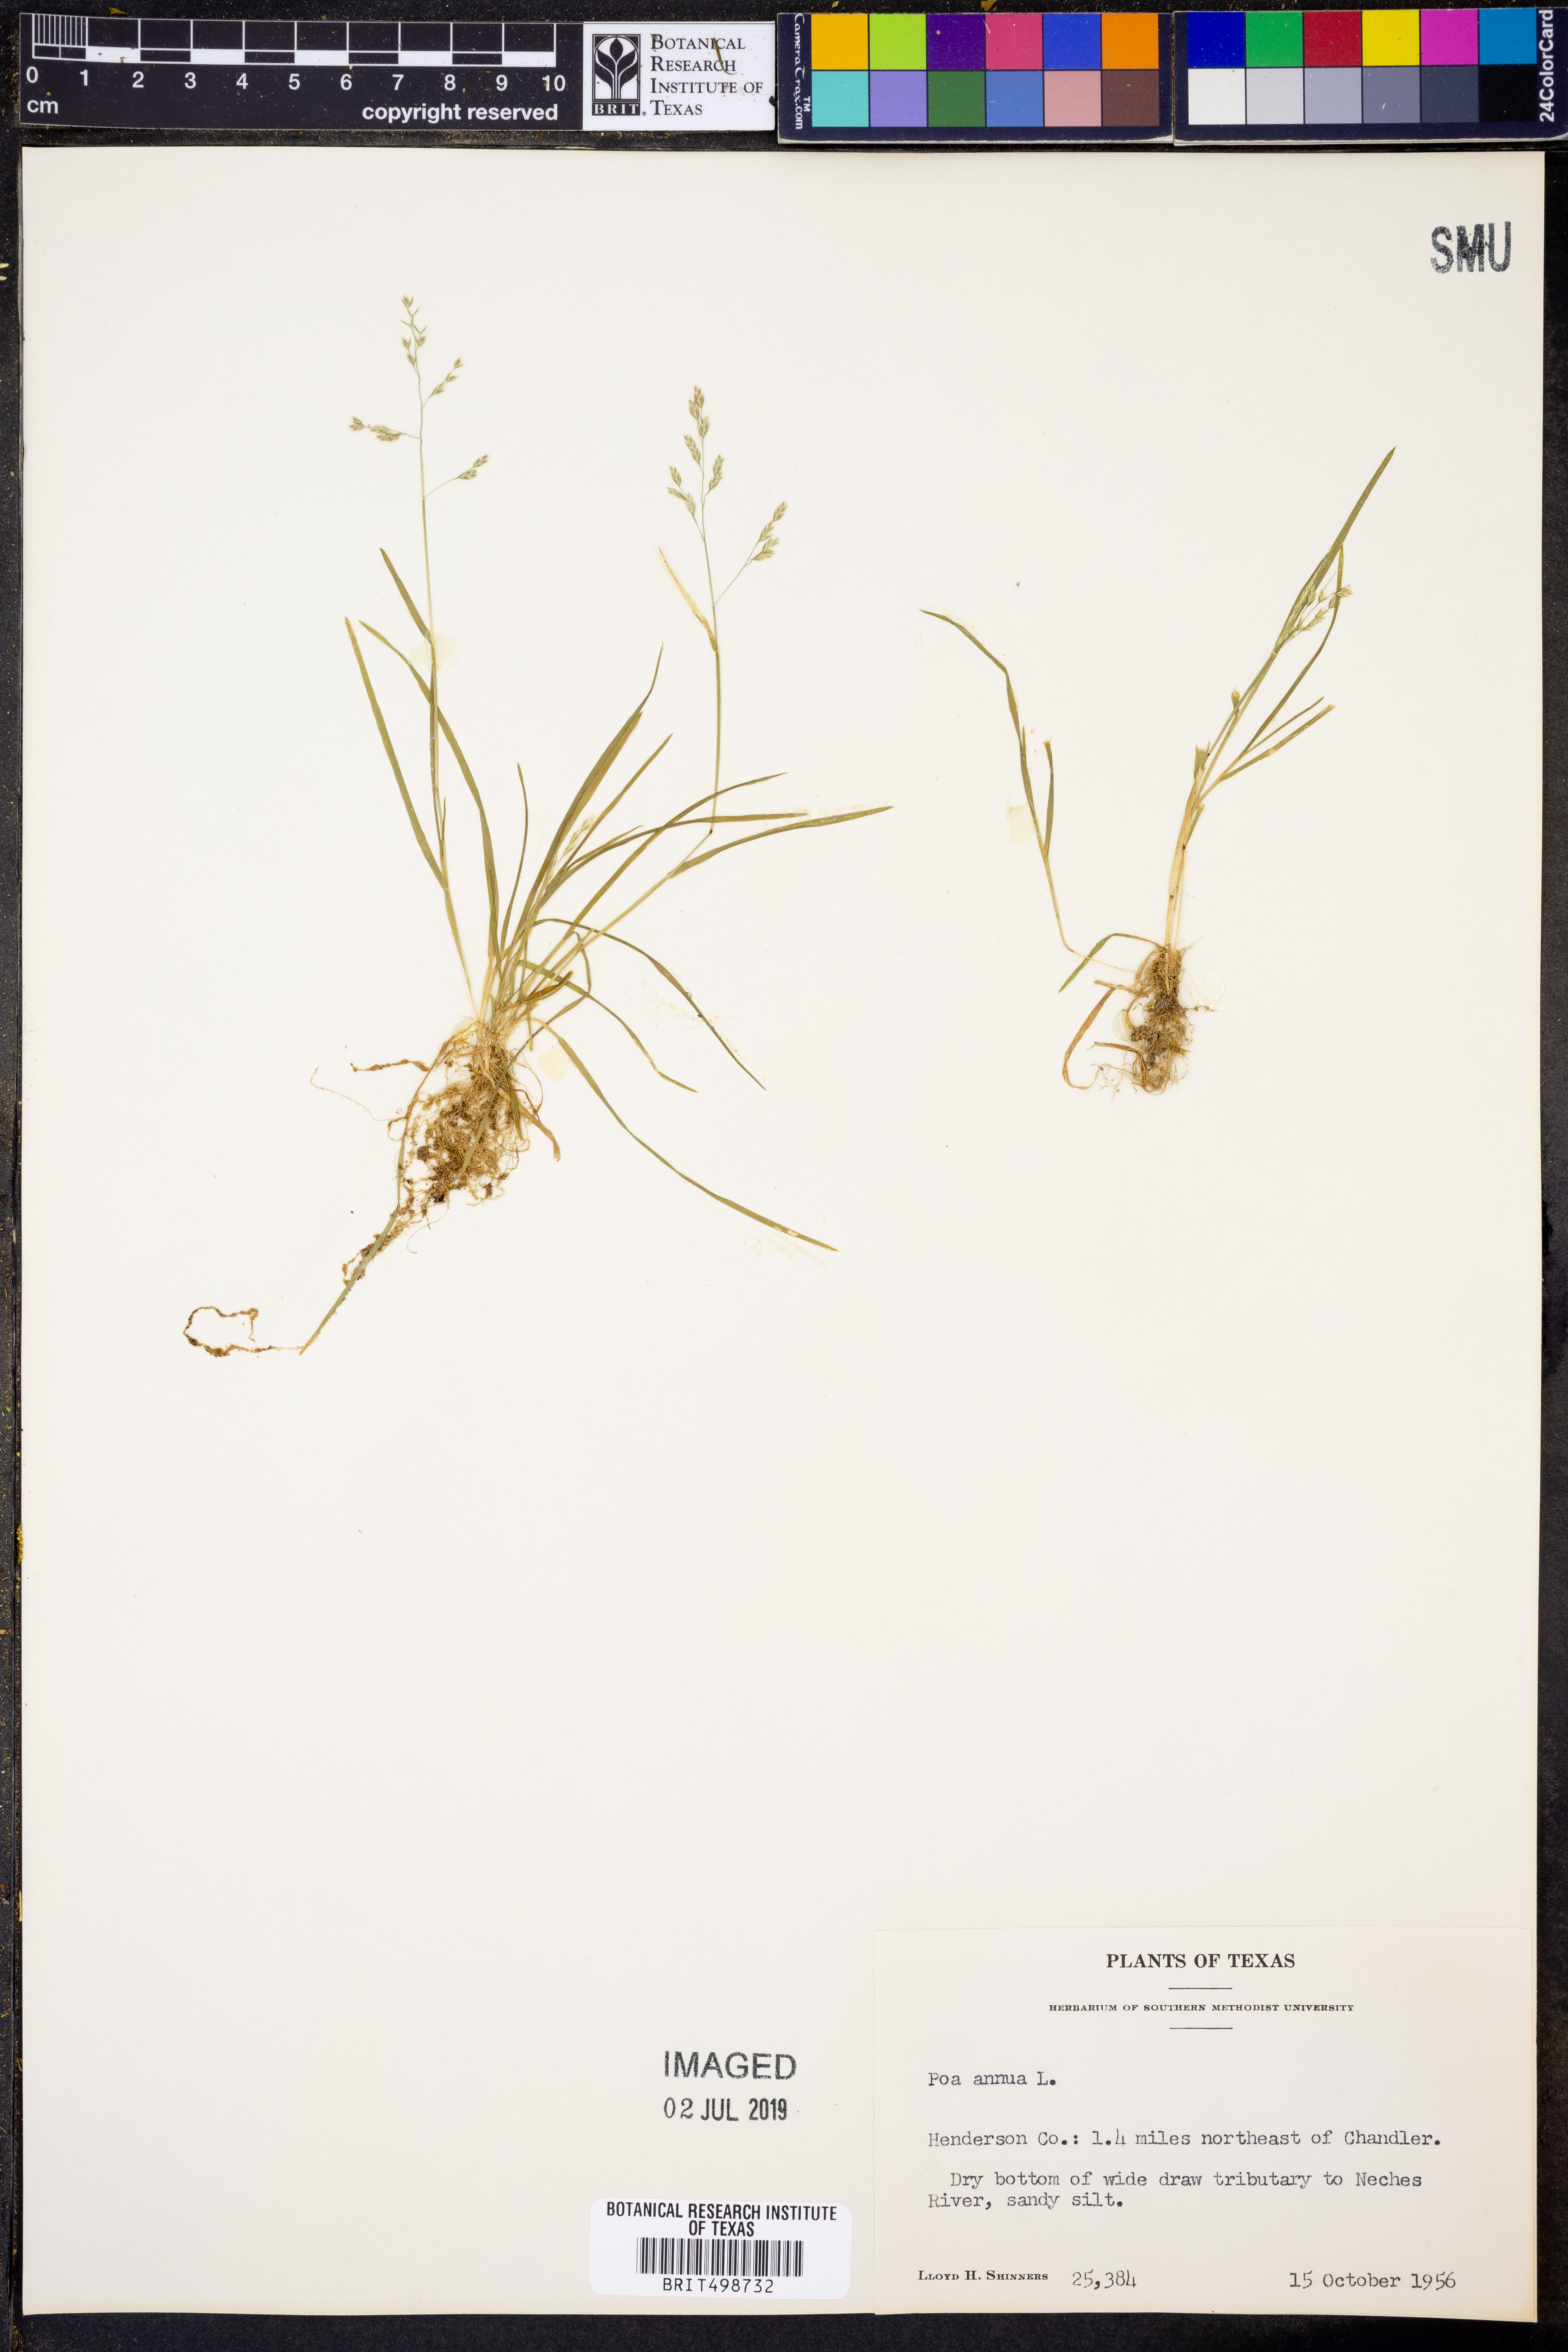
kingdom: Plantae
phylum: Tracheophyta
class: Liliopsida
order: Poales
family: Poaceae
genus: Poa
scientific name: Poa annua
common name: Annual bluegrass
